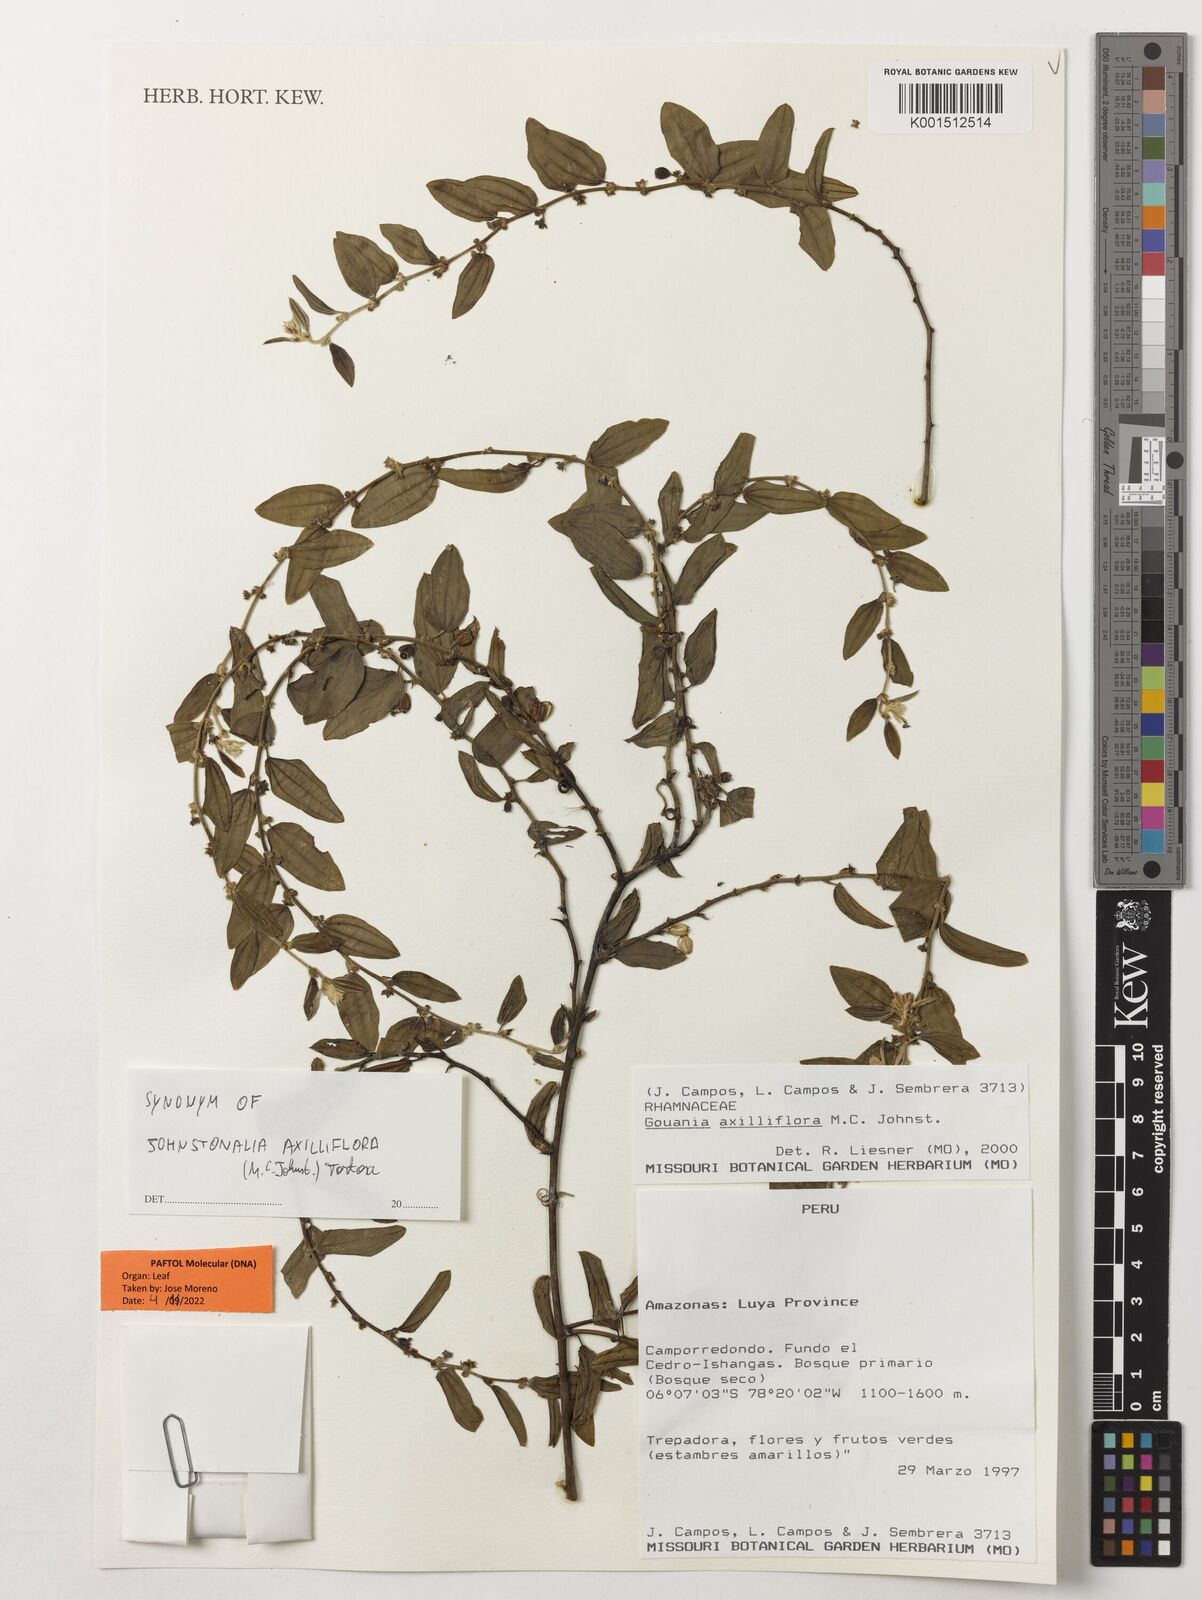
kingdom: Plantae
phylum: Tracheophyta
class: Magnoliopsida
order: Rosales
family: Rhamnaceae
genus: Johnstonalia
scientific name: Johnstonalia axilliflora
